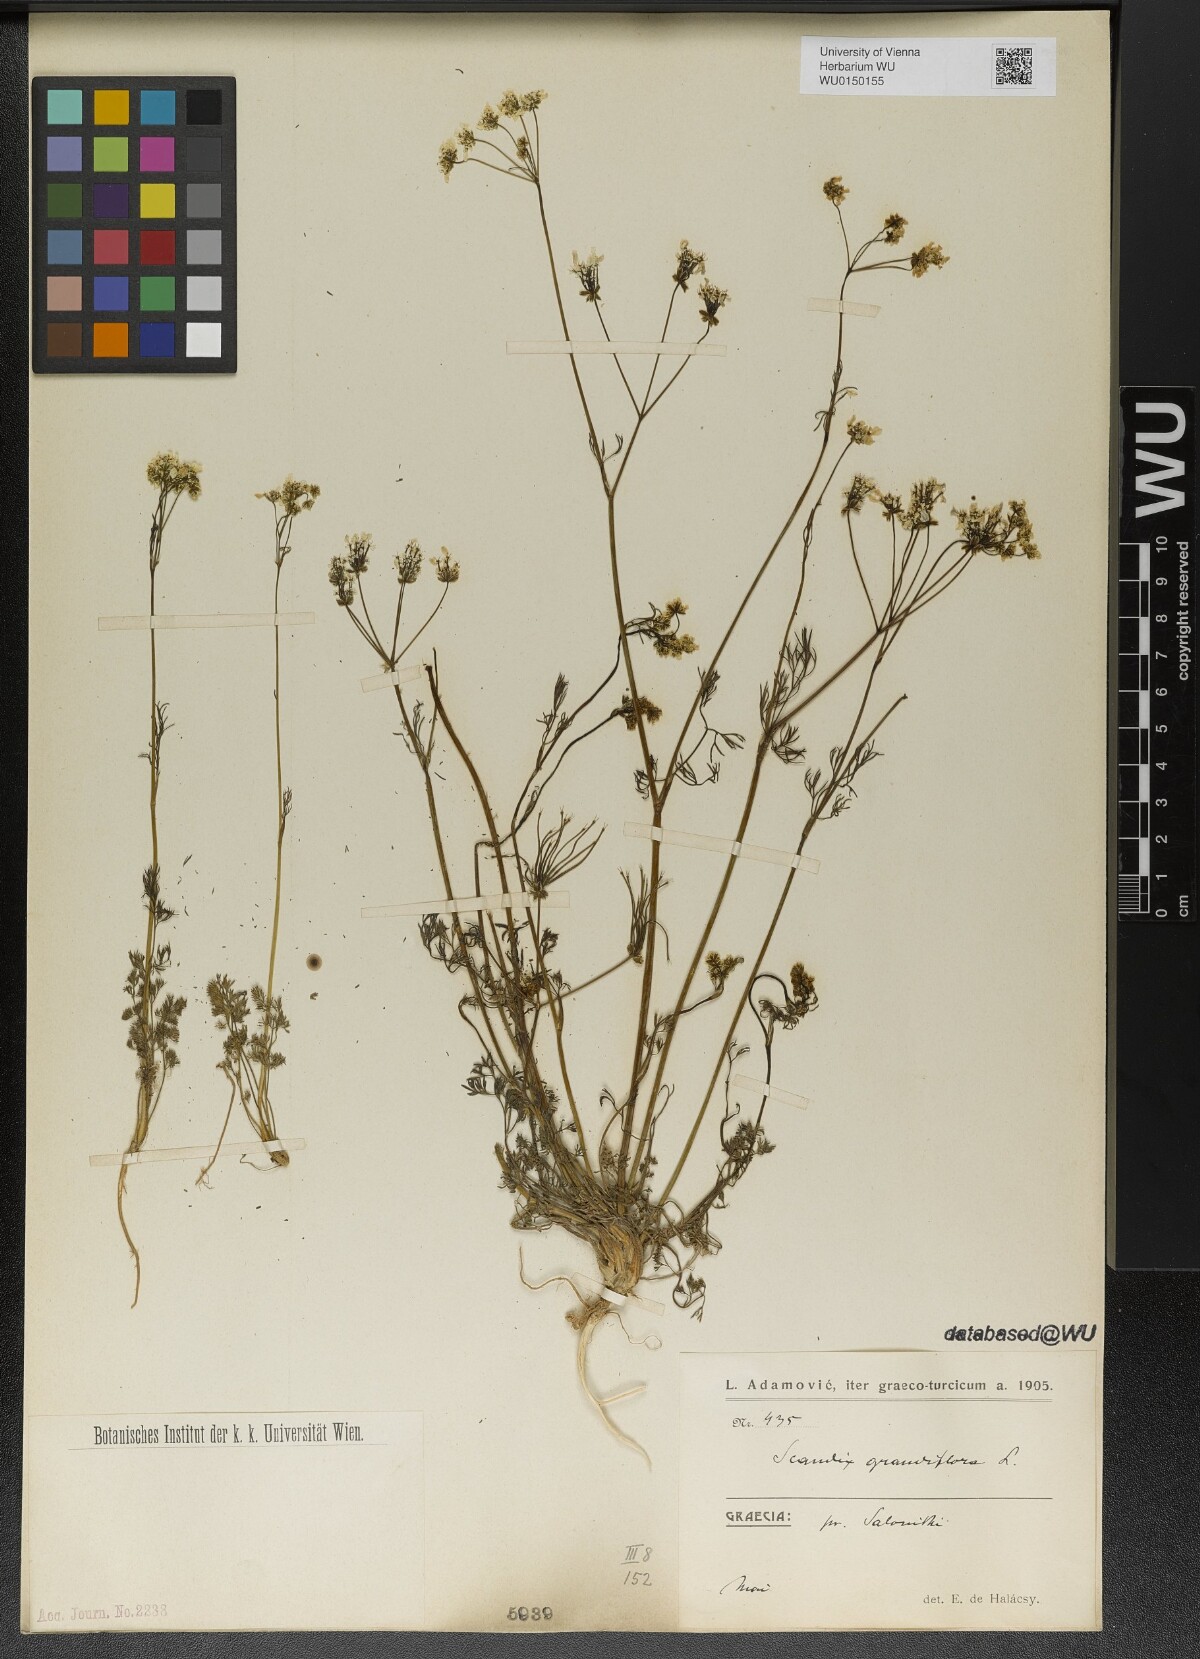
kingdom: Plantae
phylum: Tracheophyta
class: Magnoliopsida
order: Apiales
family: Apiaceae
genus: Scandix
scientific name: Scandix australis
